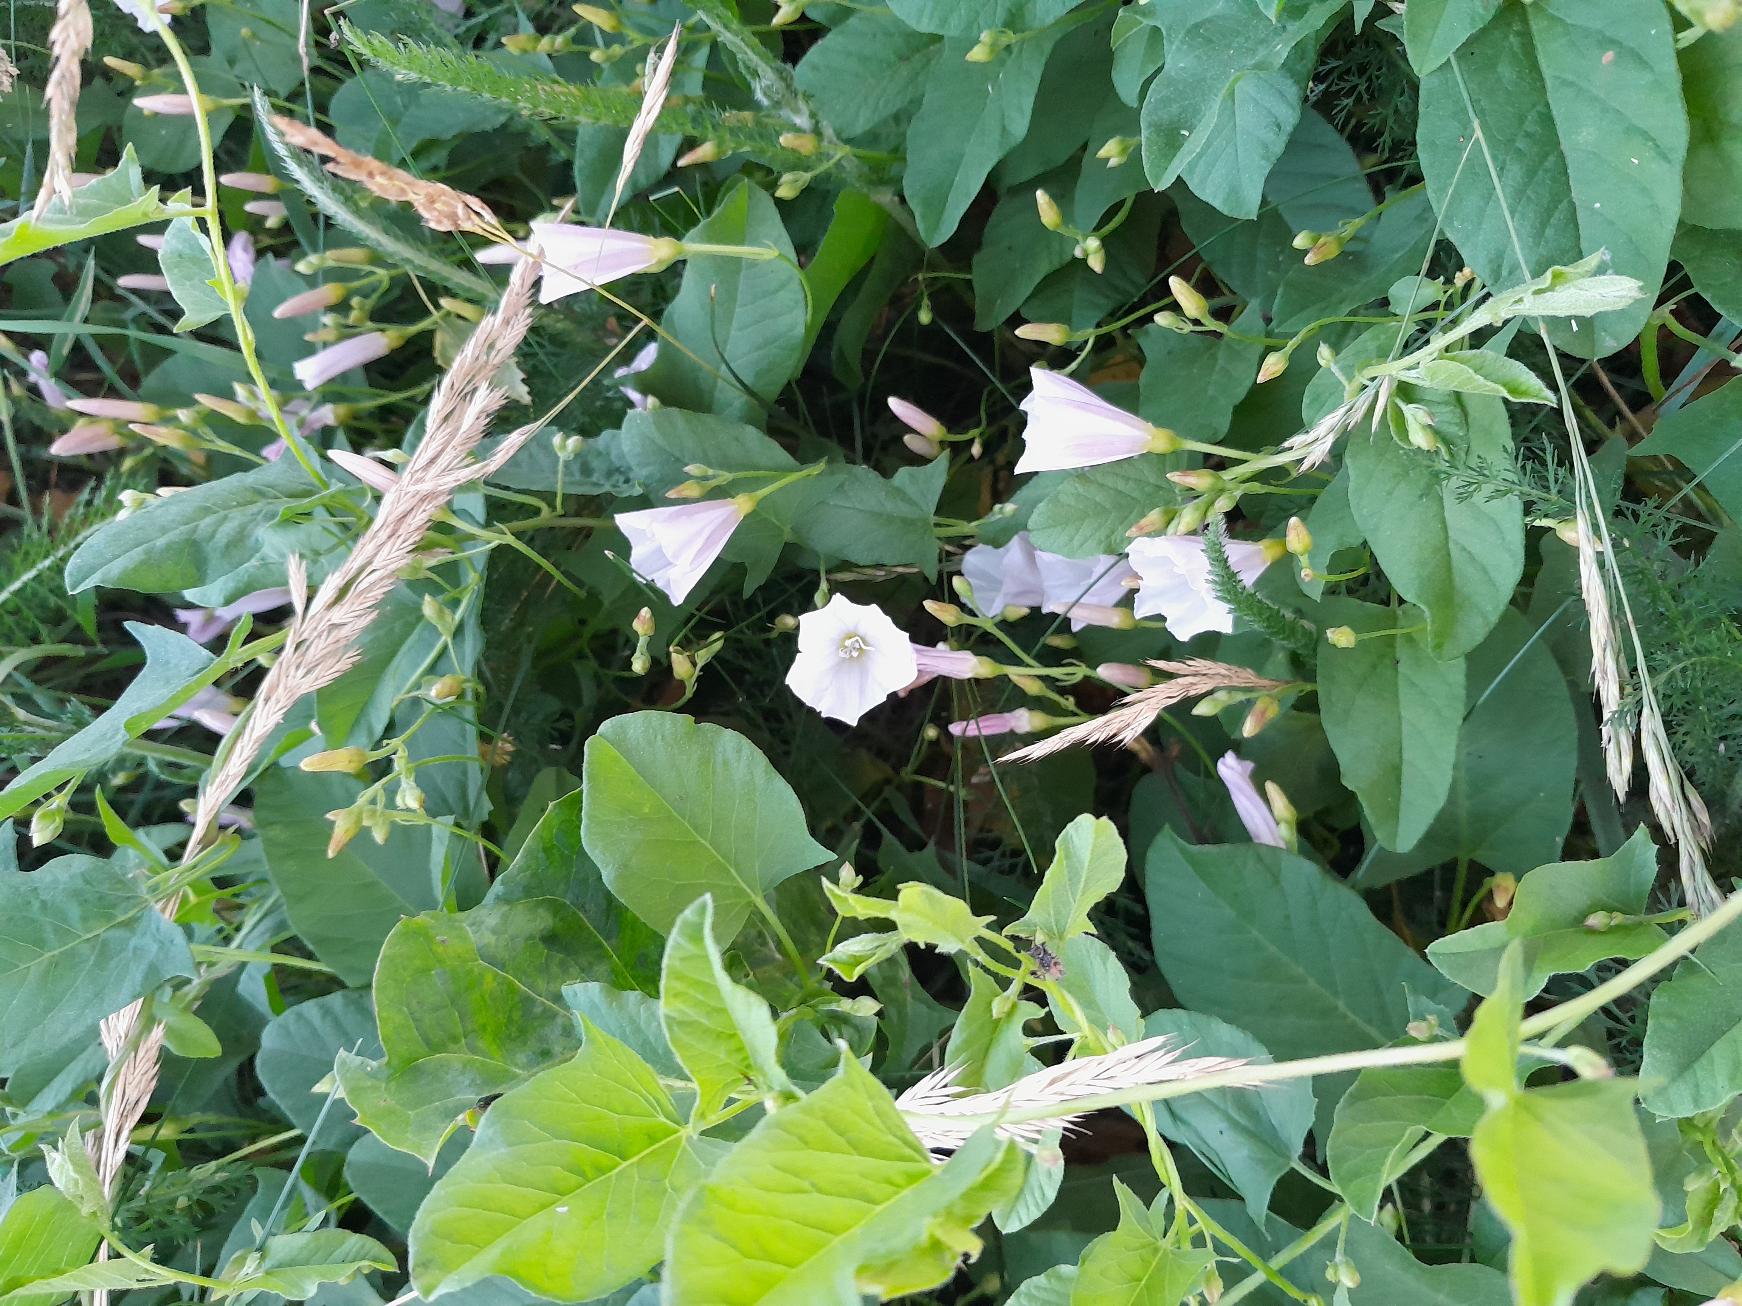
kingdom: Plantae
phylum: Tracheophyta
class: Magnoliopsida
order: Solanales
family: Convolvulaceae
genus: Convolvulus
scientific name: Convolvulus arvensis
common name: Ager-snerle
